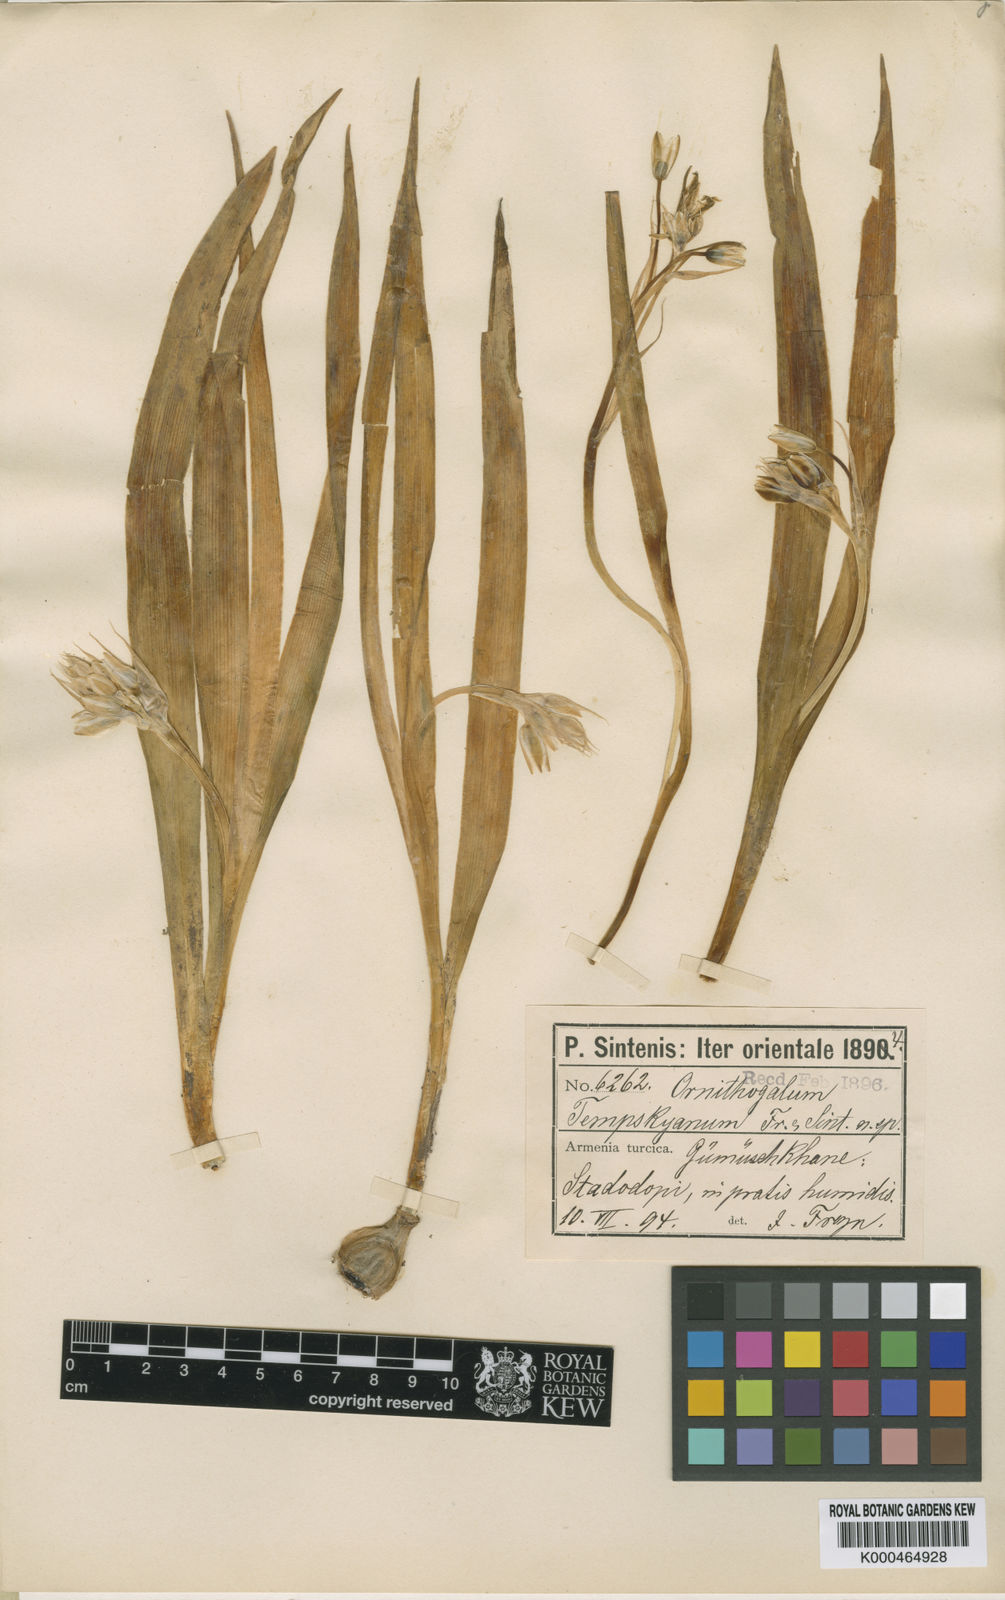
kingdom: Plantae
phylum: Tracheophyta
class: Liliopsida
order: Asparagales
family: Asparagaceae
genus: Ornithogalum
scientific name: Ornithogalum graciliflorum
